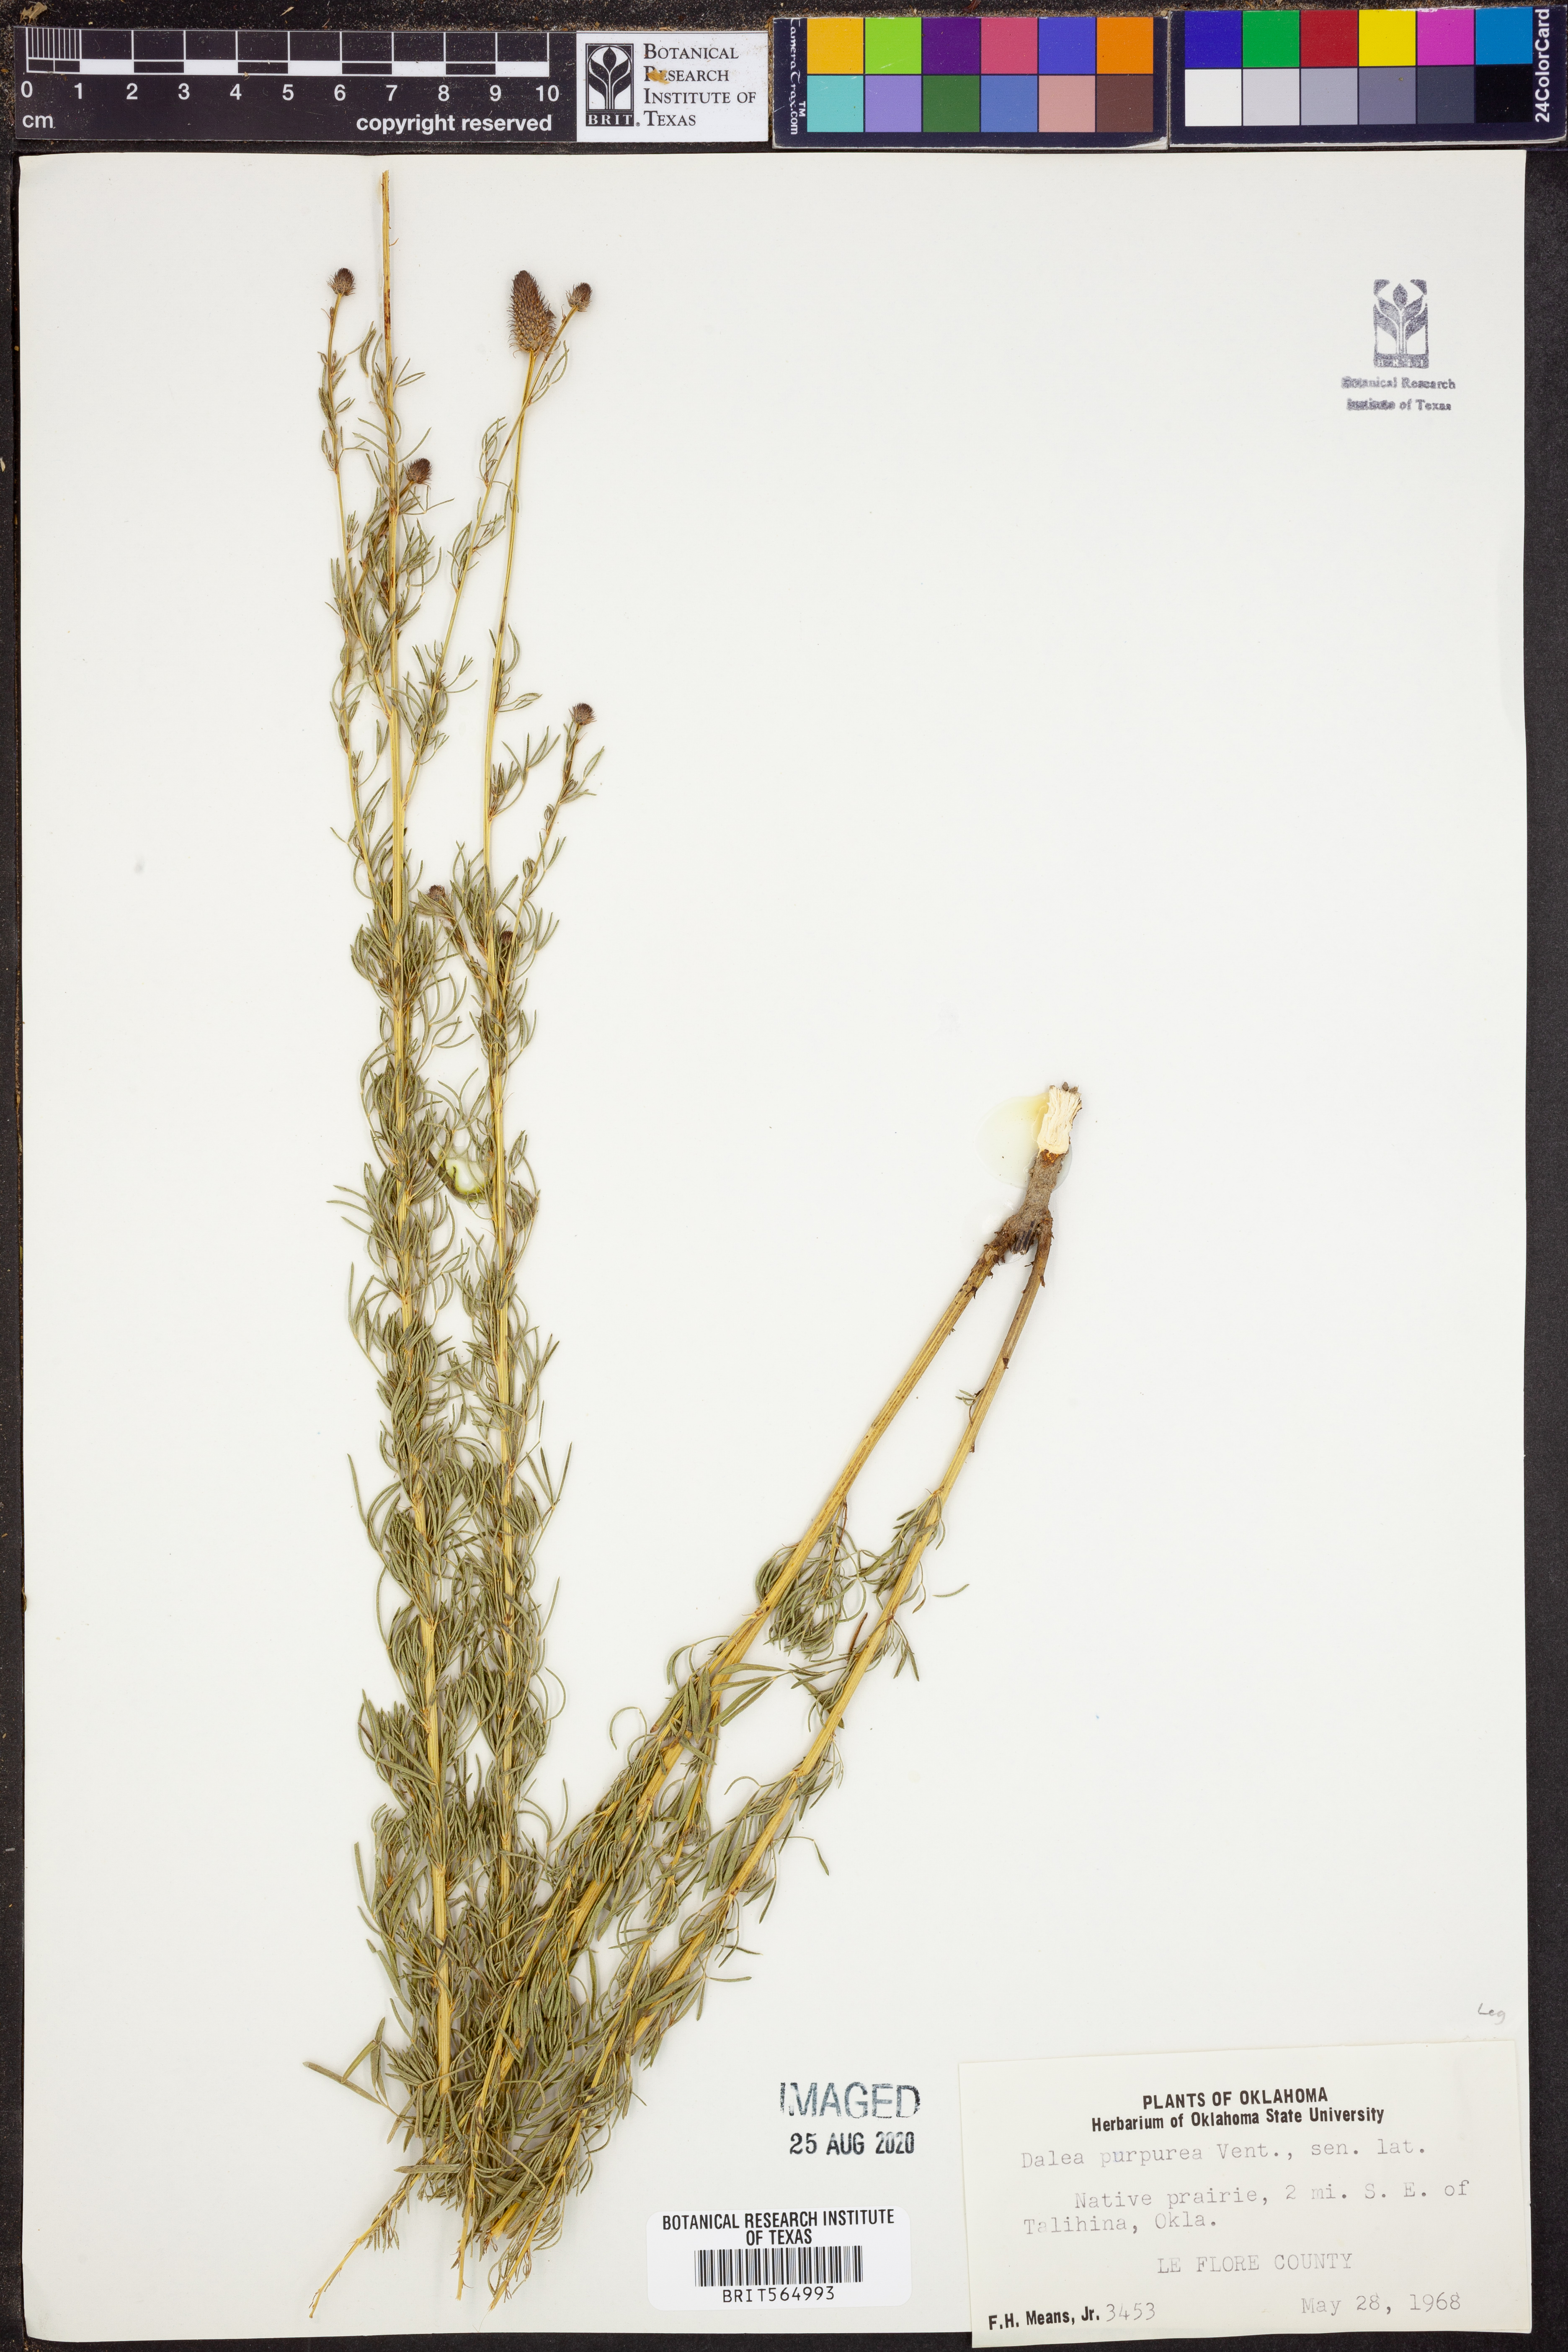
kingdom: Plantae
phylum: Tracheophyta
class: Magnoliopsida
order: Fabales
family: Fabaceae
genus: Dalea
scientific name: Dalea purpurea
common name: Purple prairie-clover
